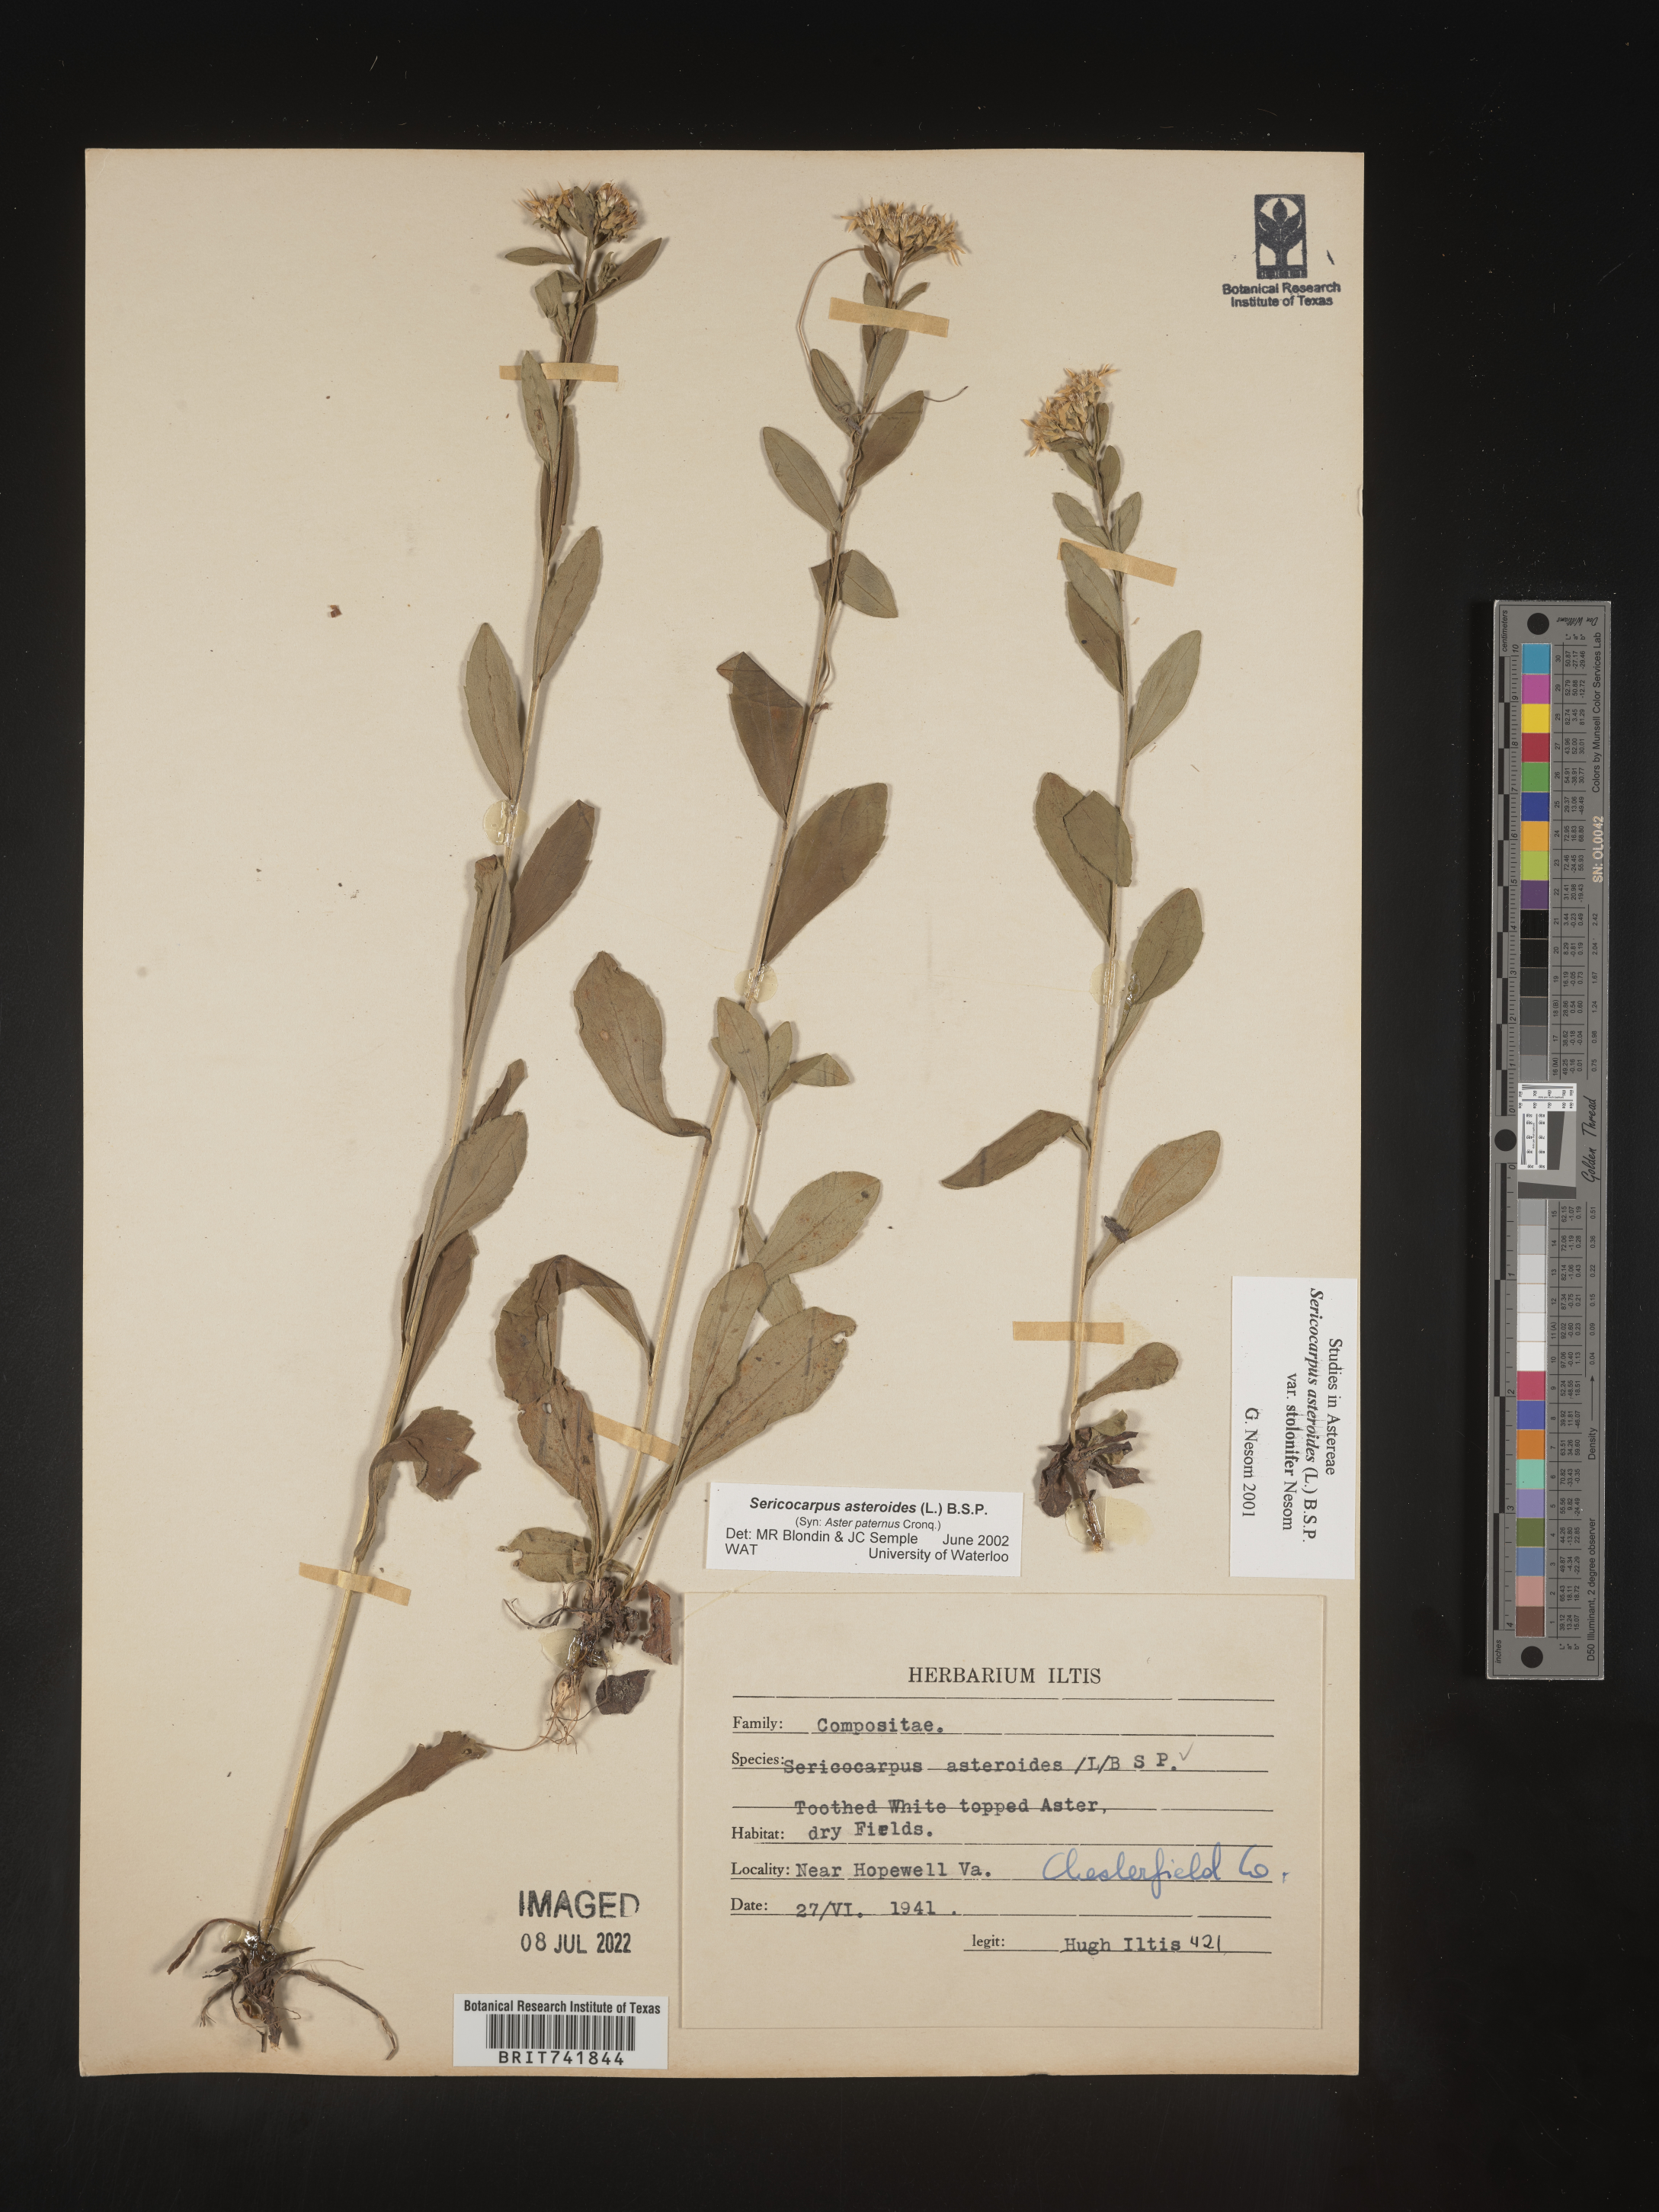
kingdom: Plantae
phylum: Tracheophyta
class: Magnoliopsida
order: Asterales
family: Asteraceae
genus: Sericocarpus
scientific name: Sericocarpus asteroides
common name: Toothed white-top aster
